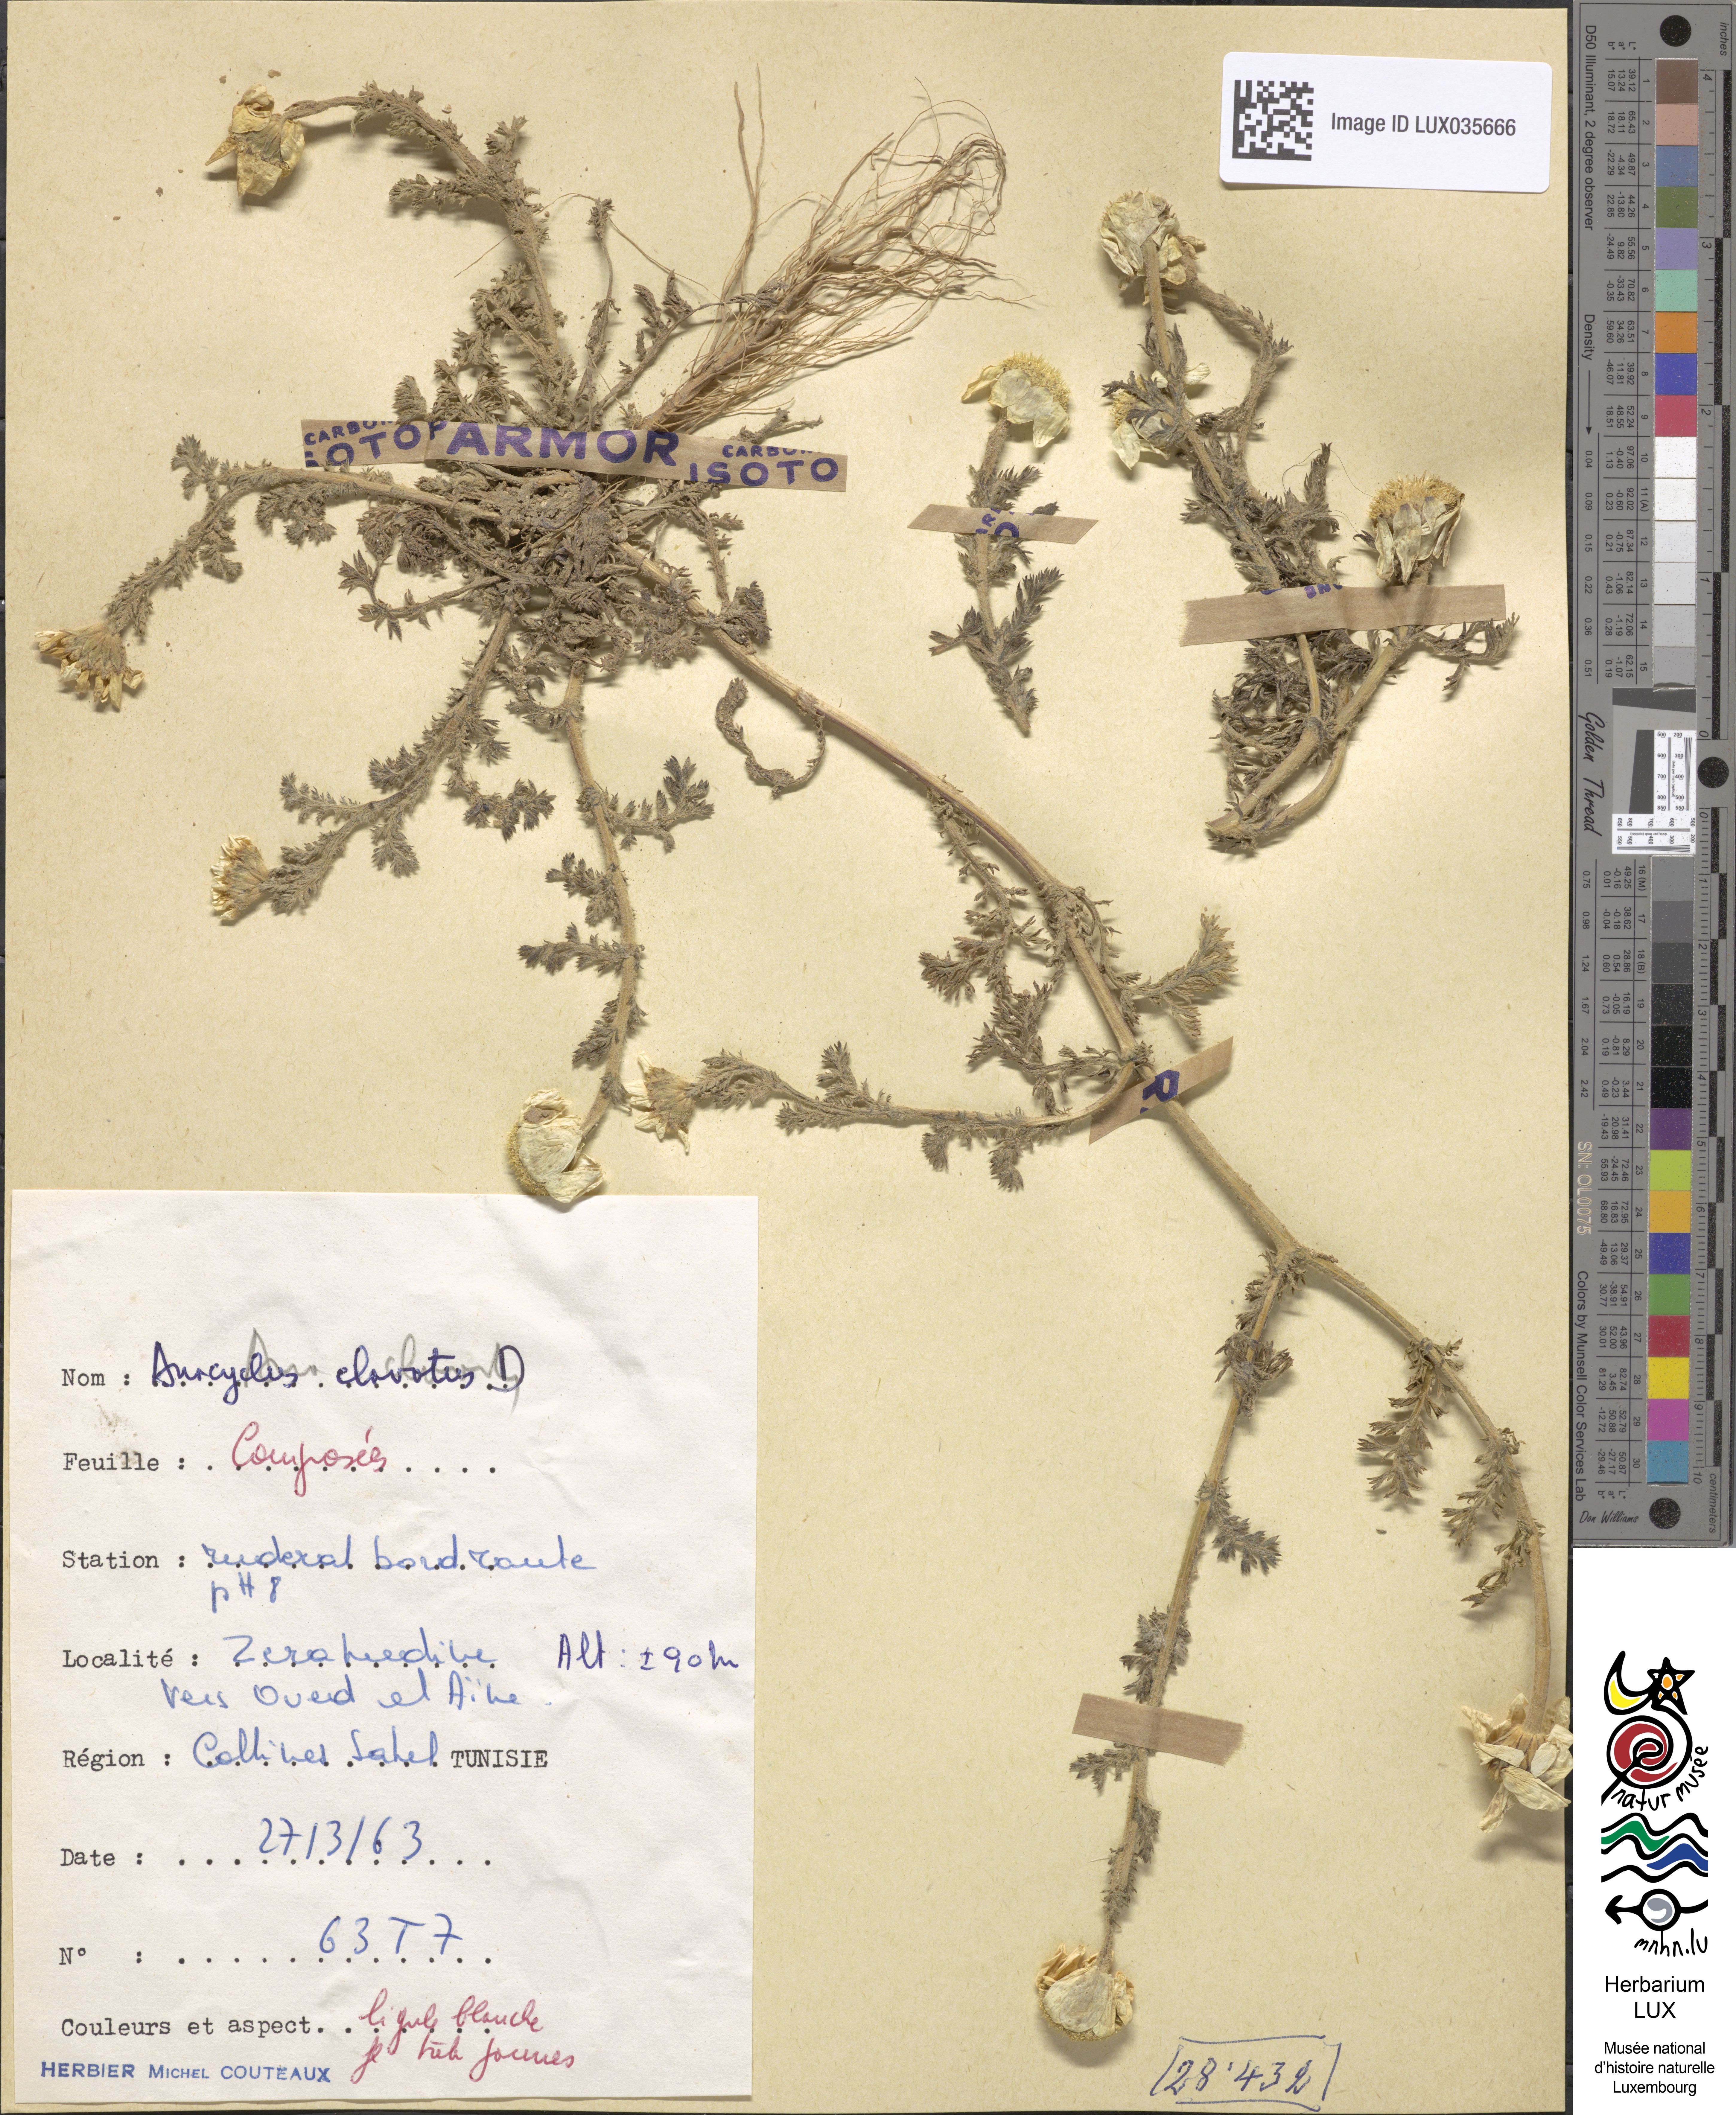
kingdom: Plantae
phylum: Tracheophyta
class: Magnoliopsida
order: Asterales
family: Asteraceae
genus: Anacyclus
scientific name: Anacyclus clavatus
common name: Whitebuttons
